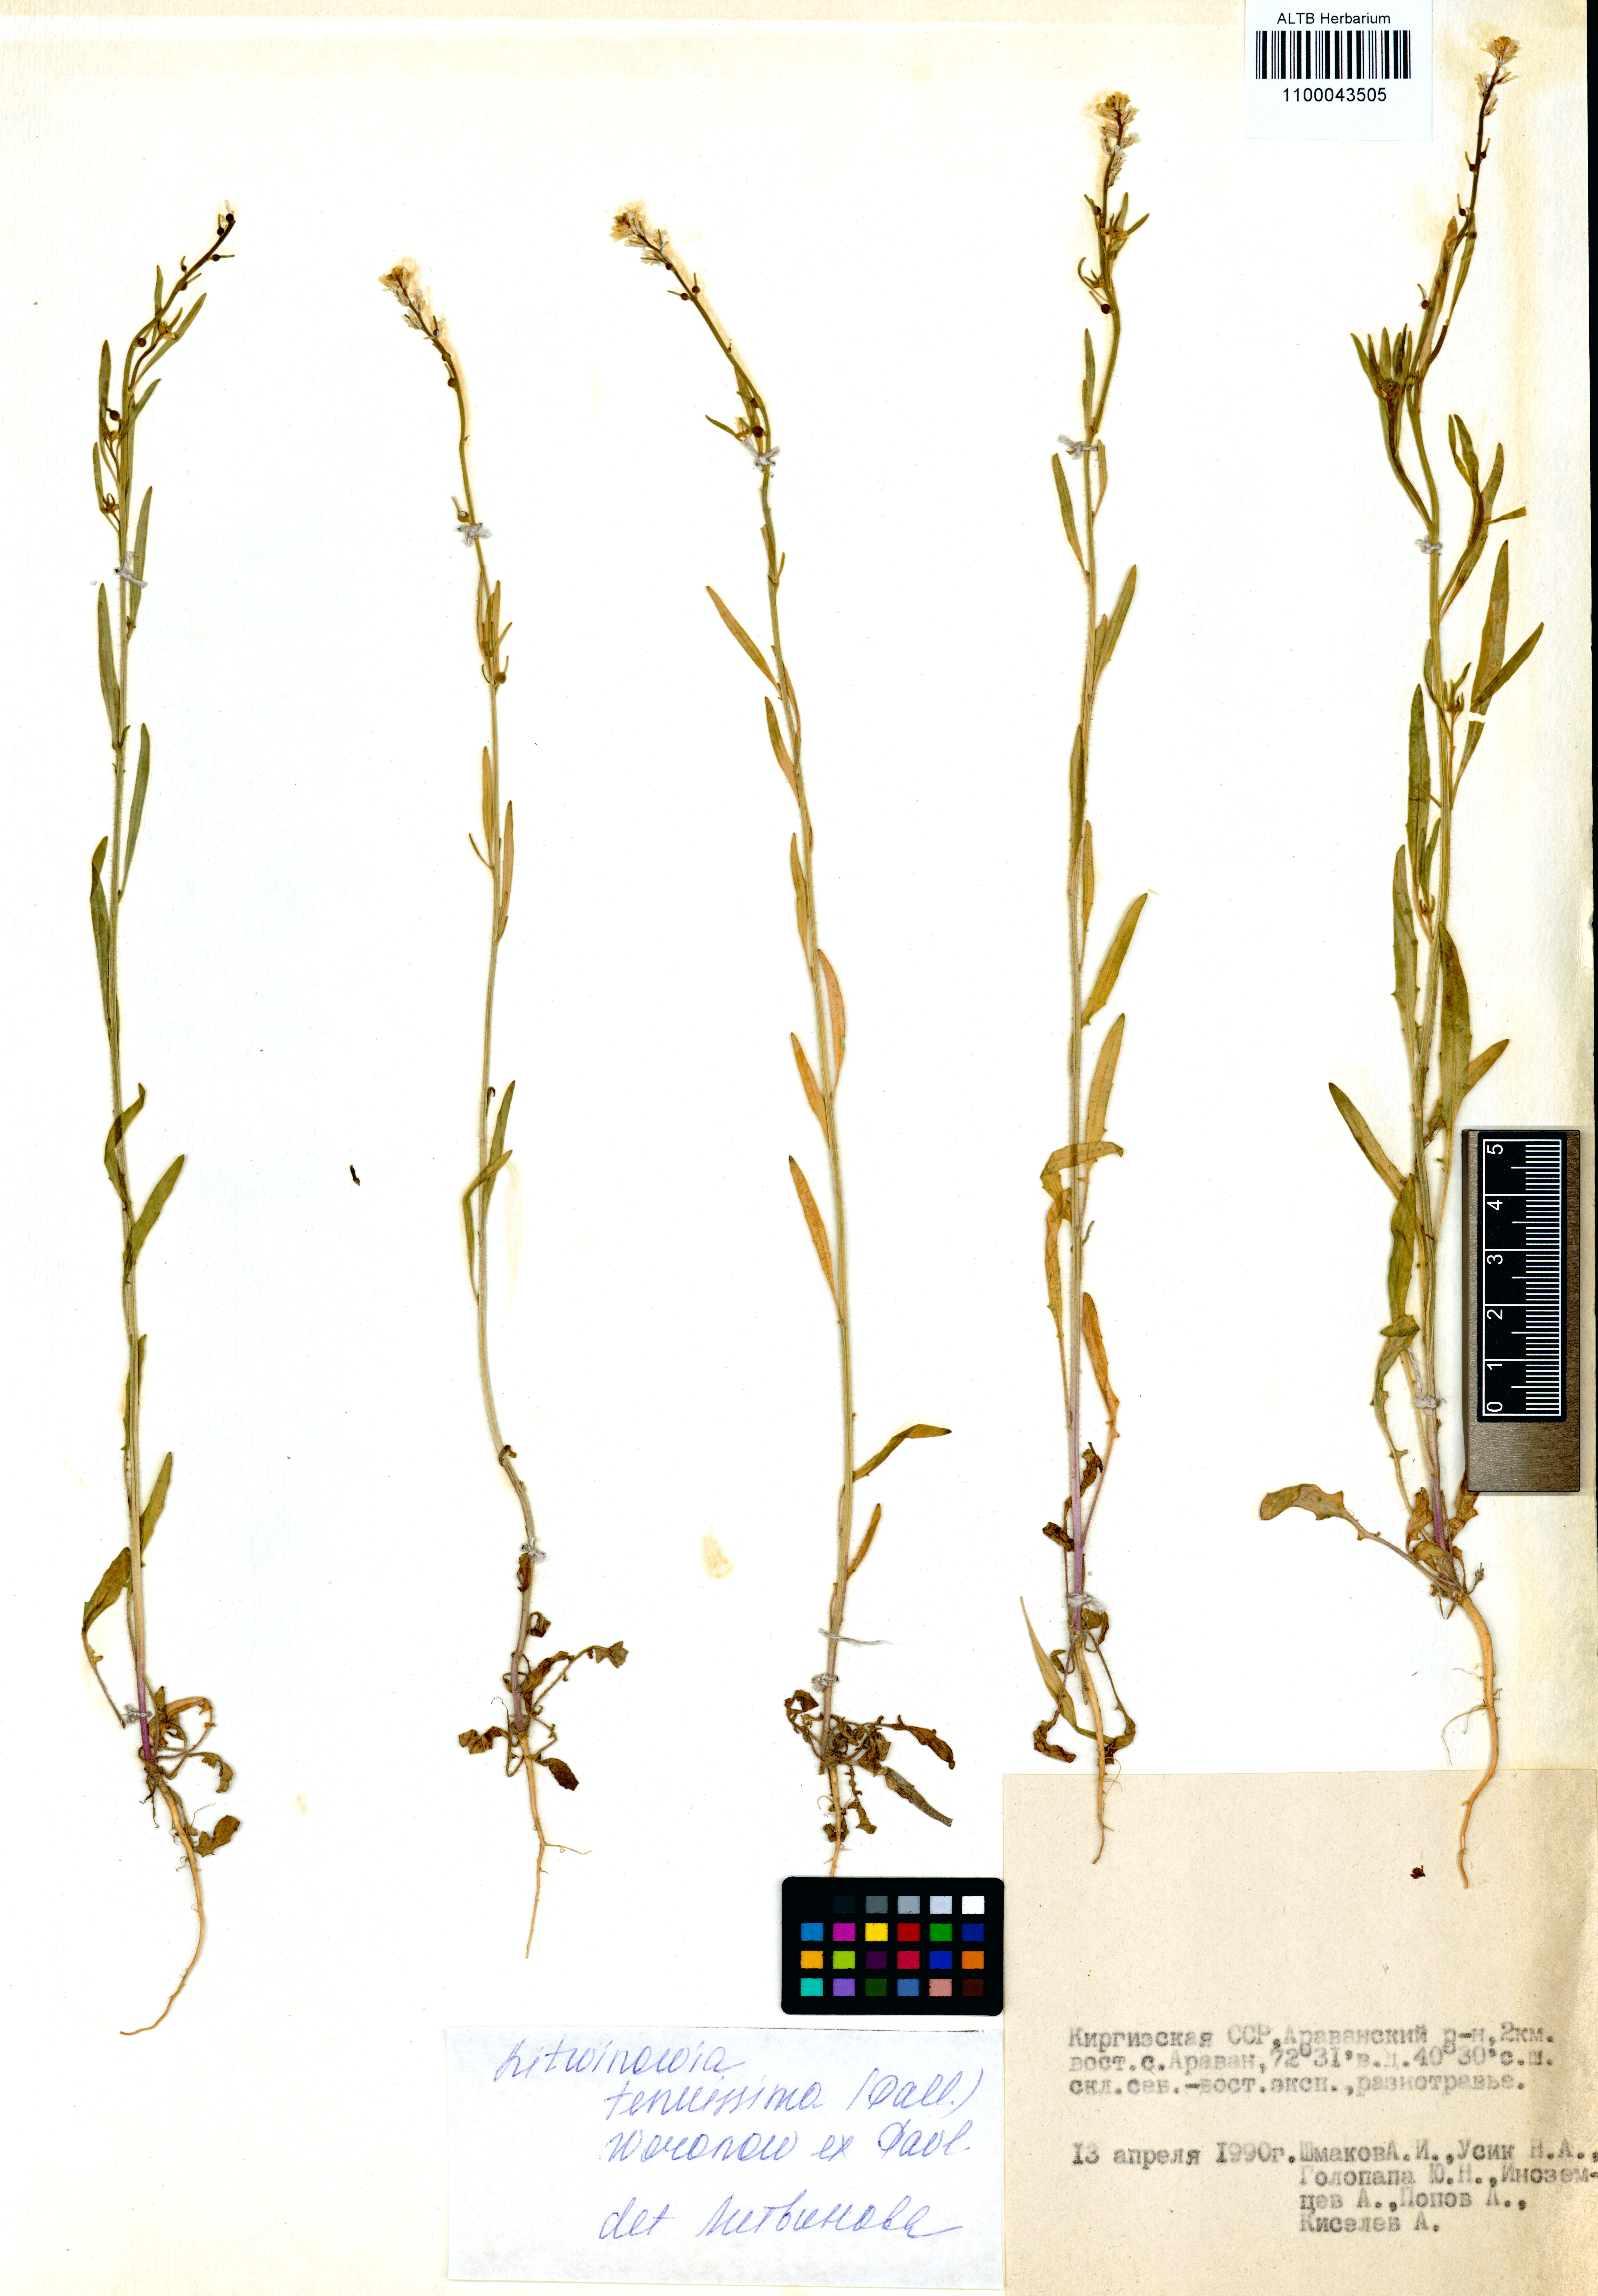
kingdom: Plantae
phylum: Tracheophyta
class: Magnoliopsida
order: Brassicales
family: Brassicaceae
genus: Litwinowia
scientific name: Litwinowia tenuissima
